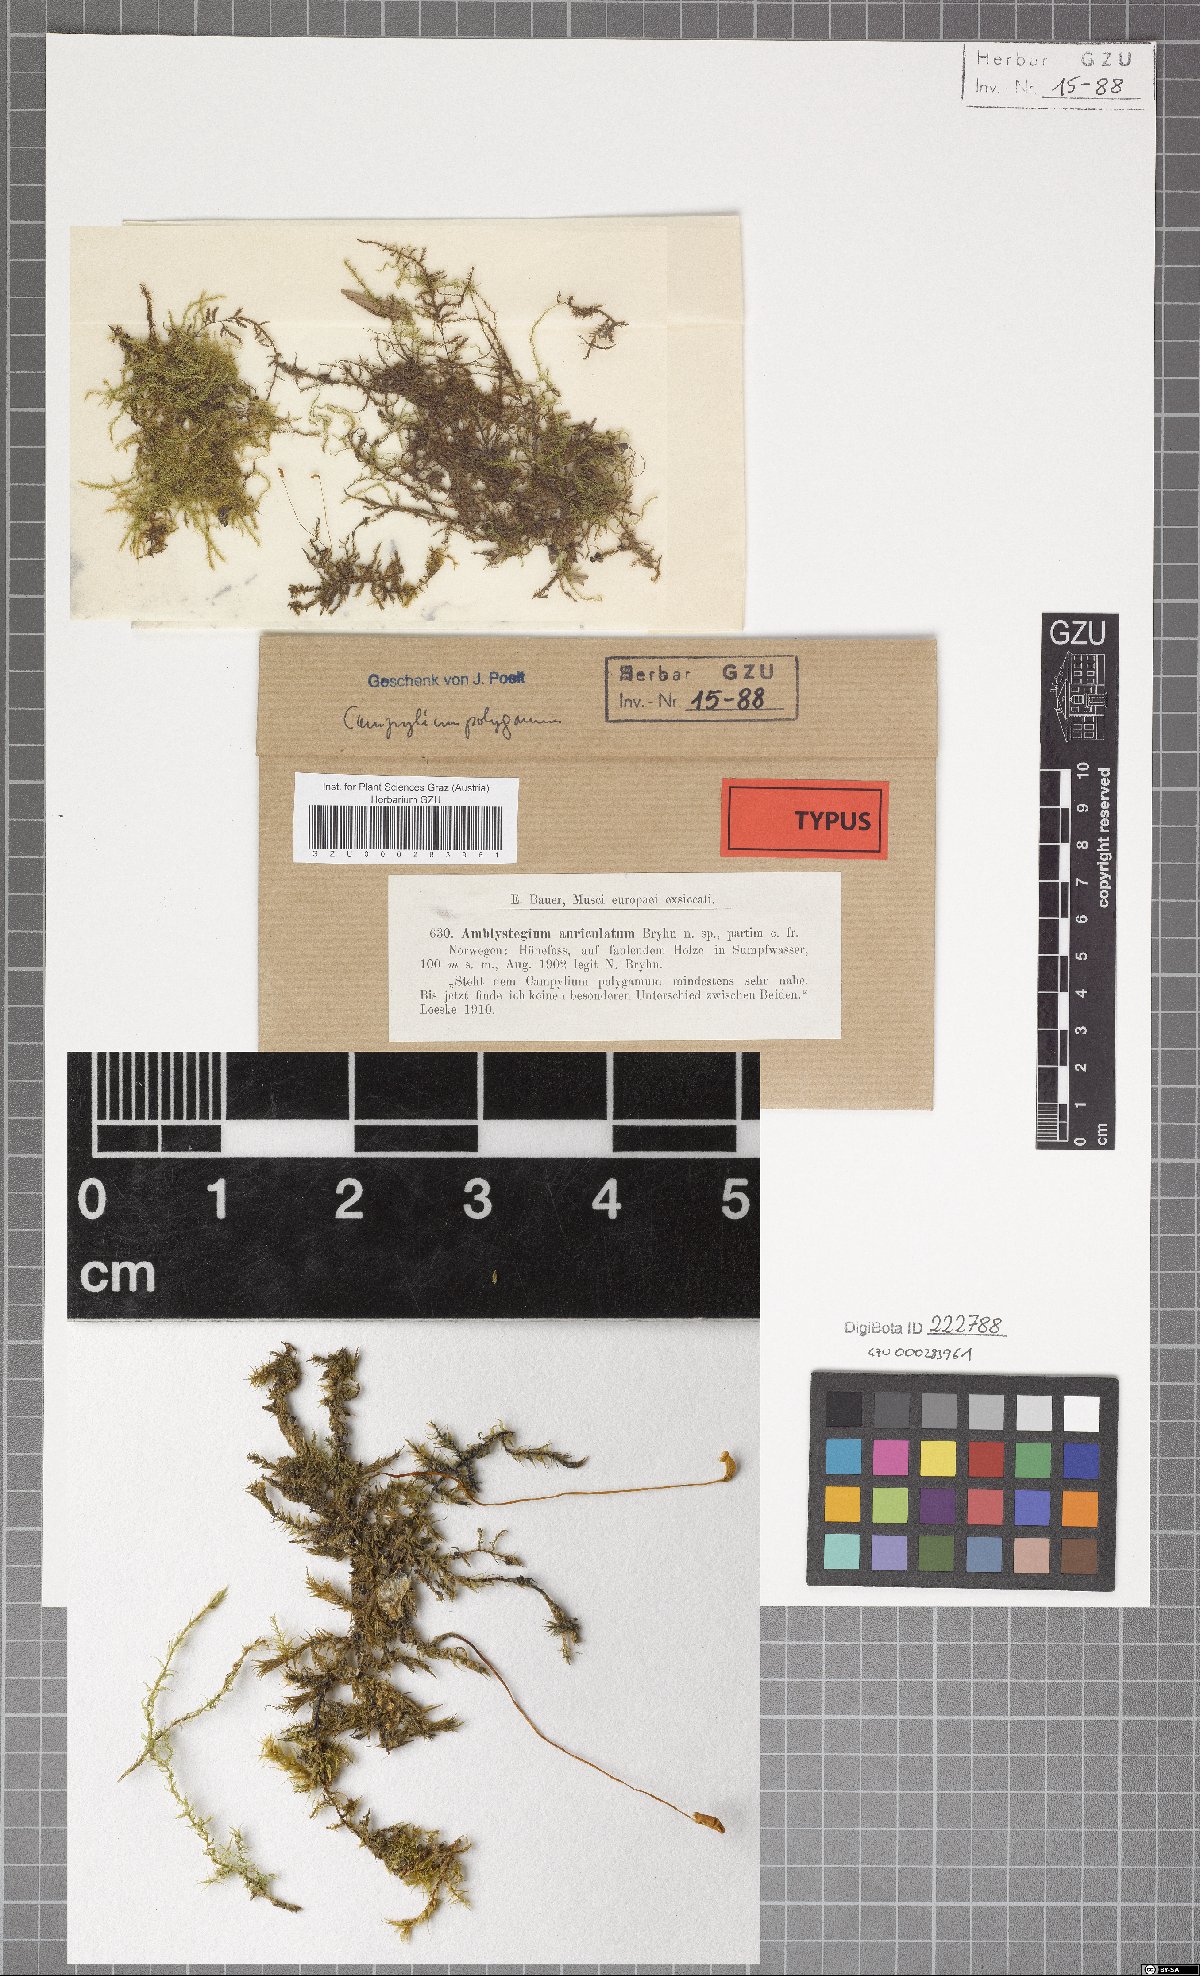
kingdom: Plantae
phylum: Bryophyta
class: Bryopsida
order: Hypnales
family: Amblystegiaceae
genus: Drepanocladus
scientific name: Drepanocladus polygamus
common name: Polygamous hook moss
